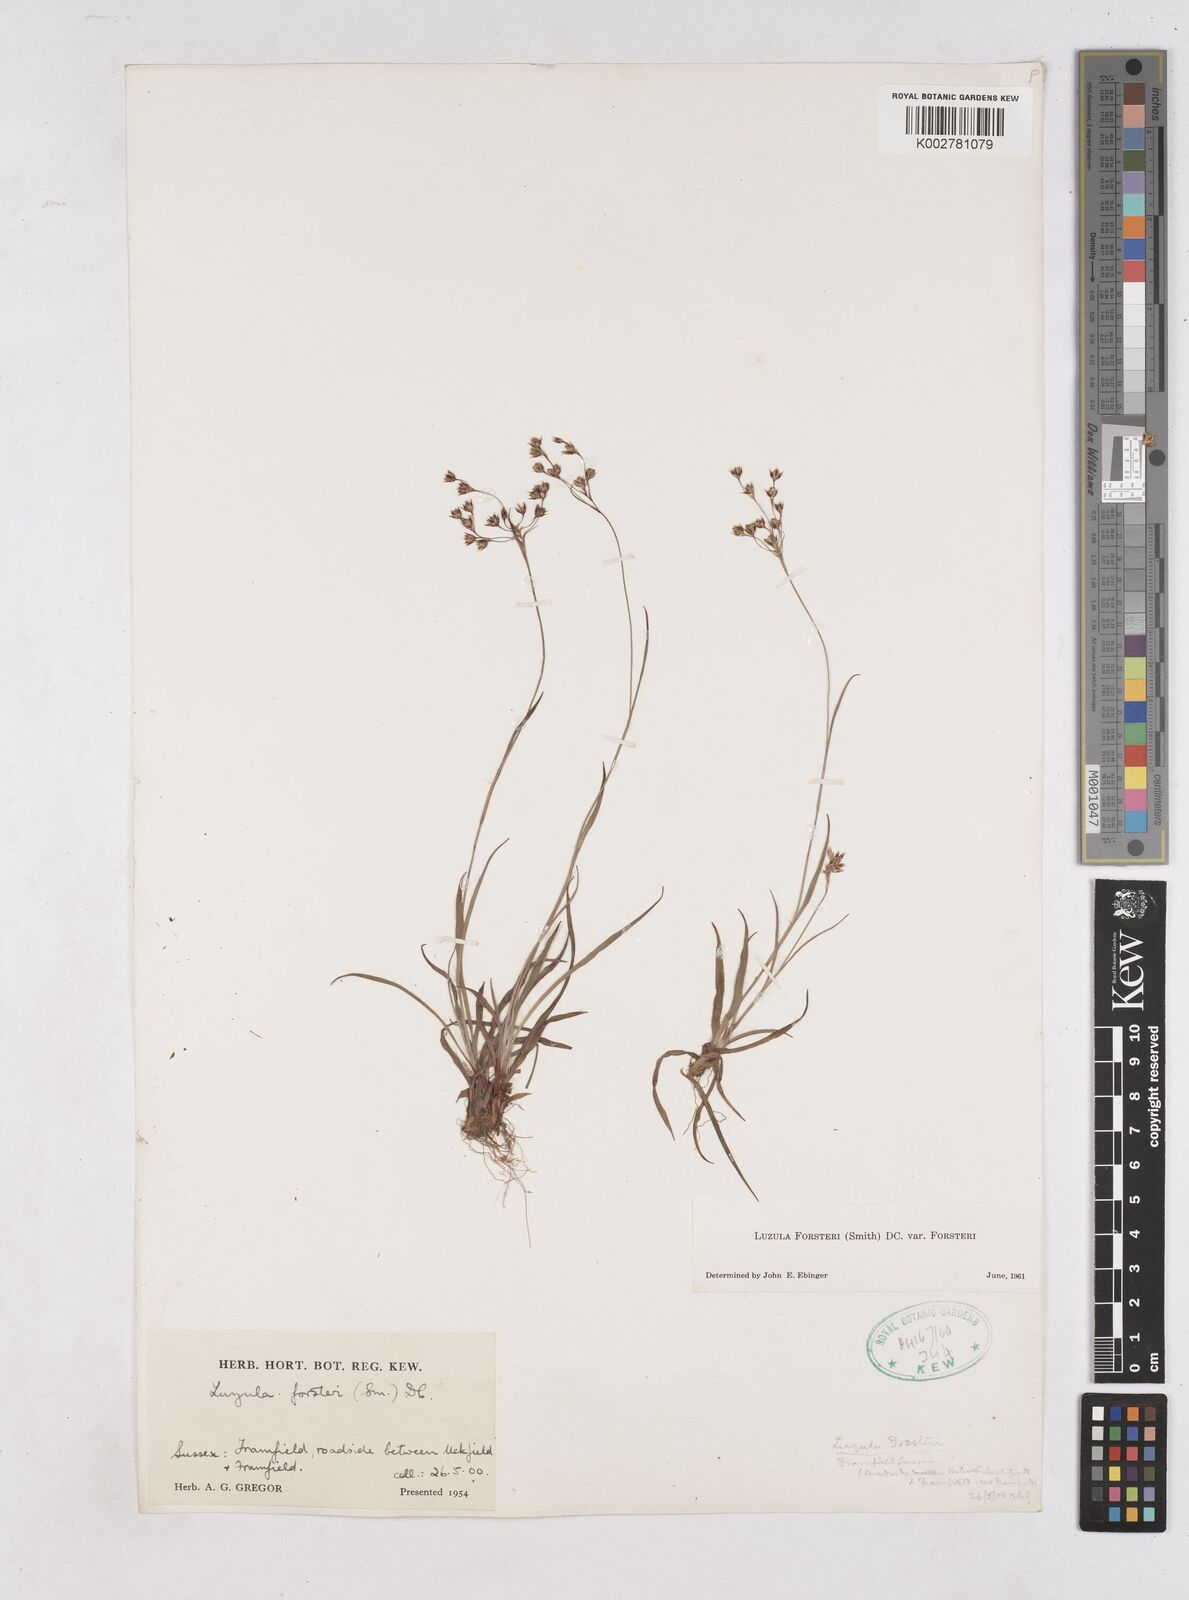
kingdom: Plantae
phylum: Tracheophyta
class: Liliopsida
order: Poales
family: Juncaceae
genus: Luzula
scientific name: Luzula forsteri
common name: Southern wood-rush
